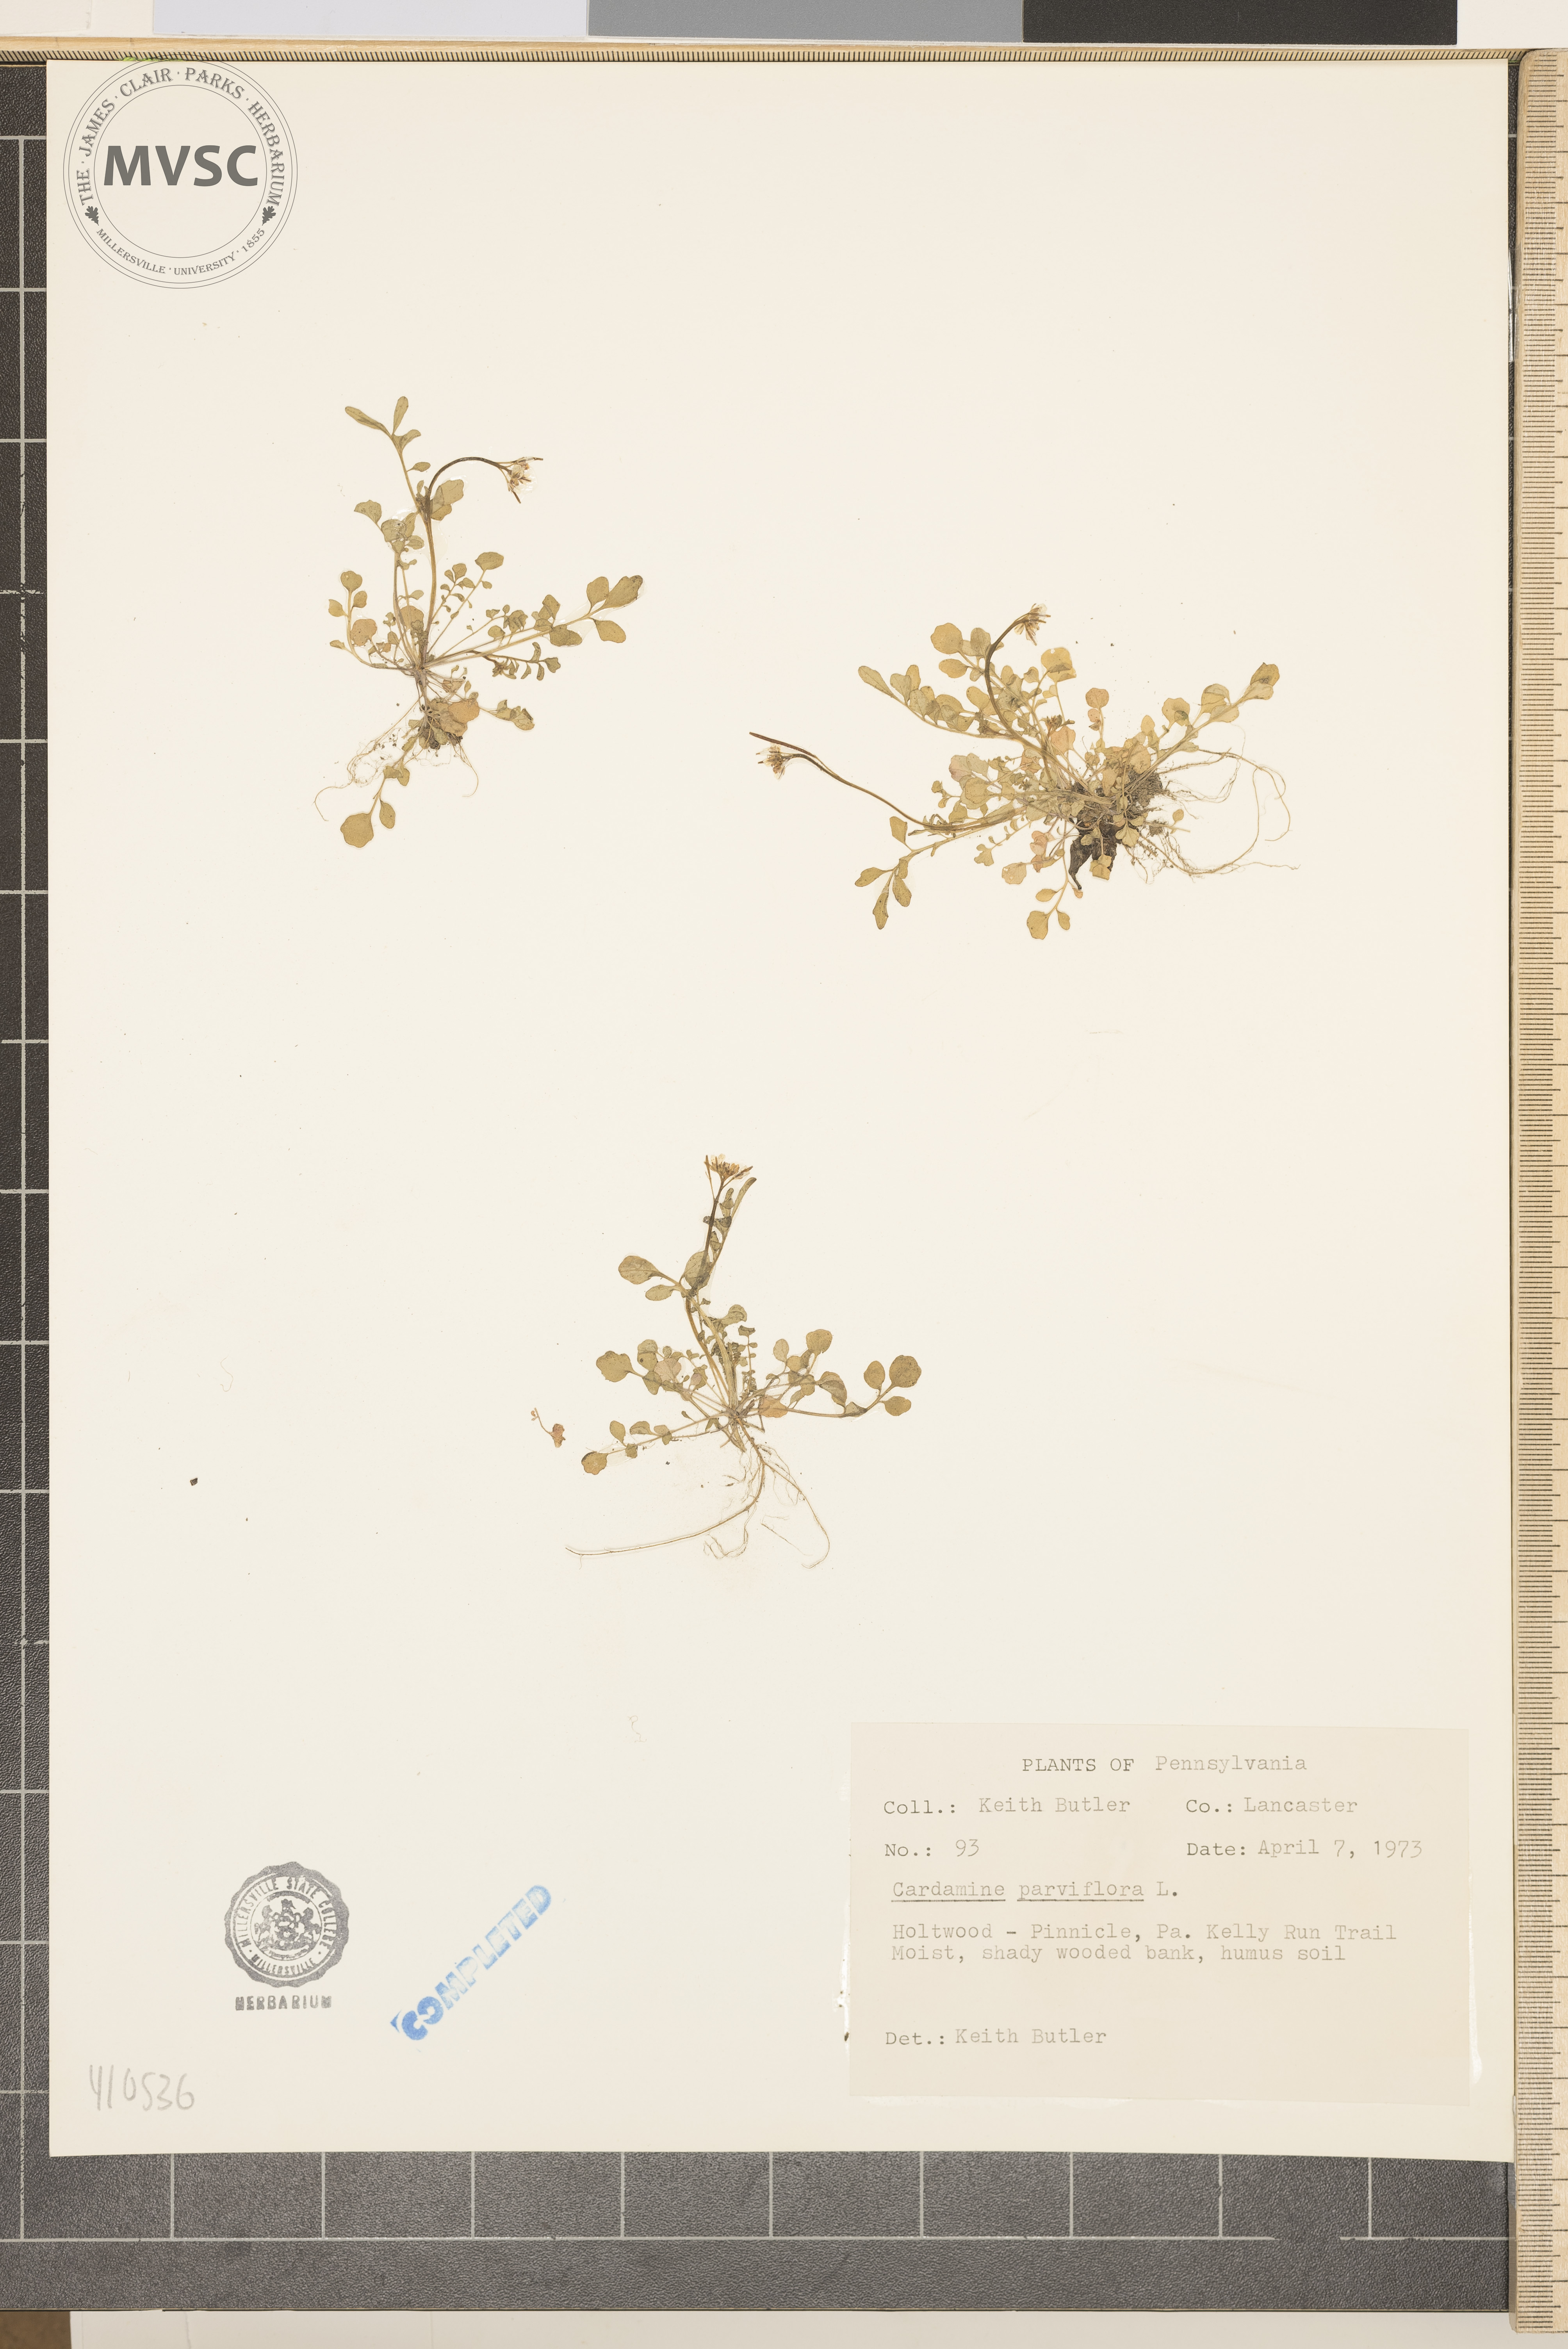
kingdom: Plantae
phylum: Tracheophyta
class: Magnoliopsida
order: Brassicales
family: Brassicaceae
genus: Cardamine
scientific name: Cardamine parviflora
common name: Sand bittercress
